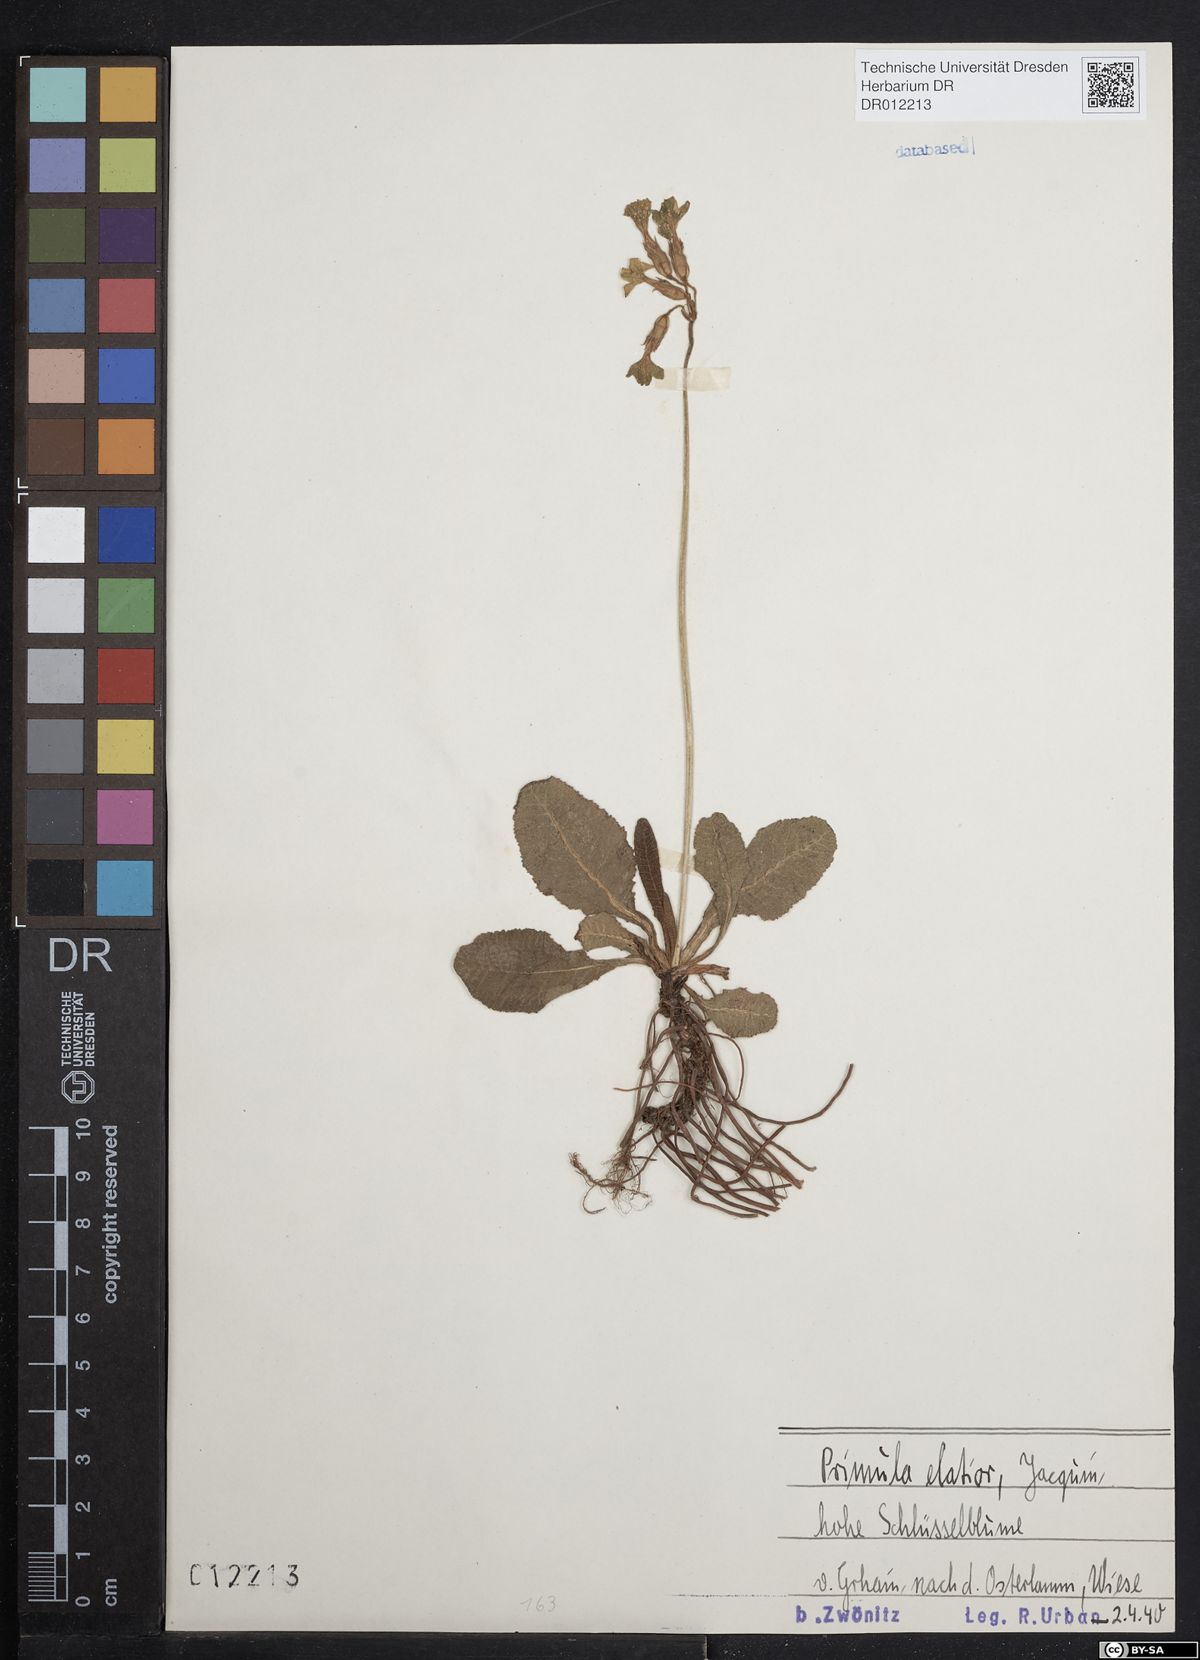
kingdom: Plantae
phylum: Tracheophyta
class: Magnoliopsida
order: Ericales
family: Primulaceae
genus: Primula
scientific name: Primula elatior
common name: Oxlip
